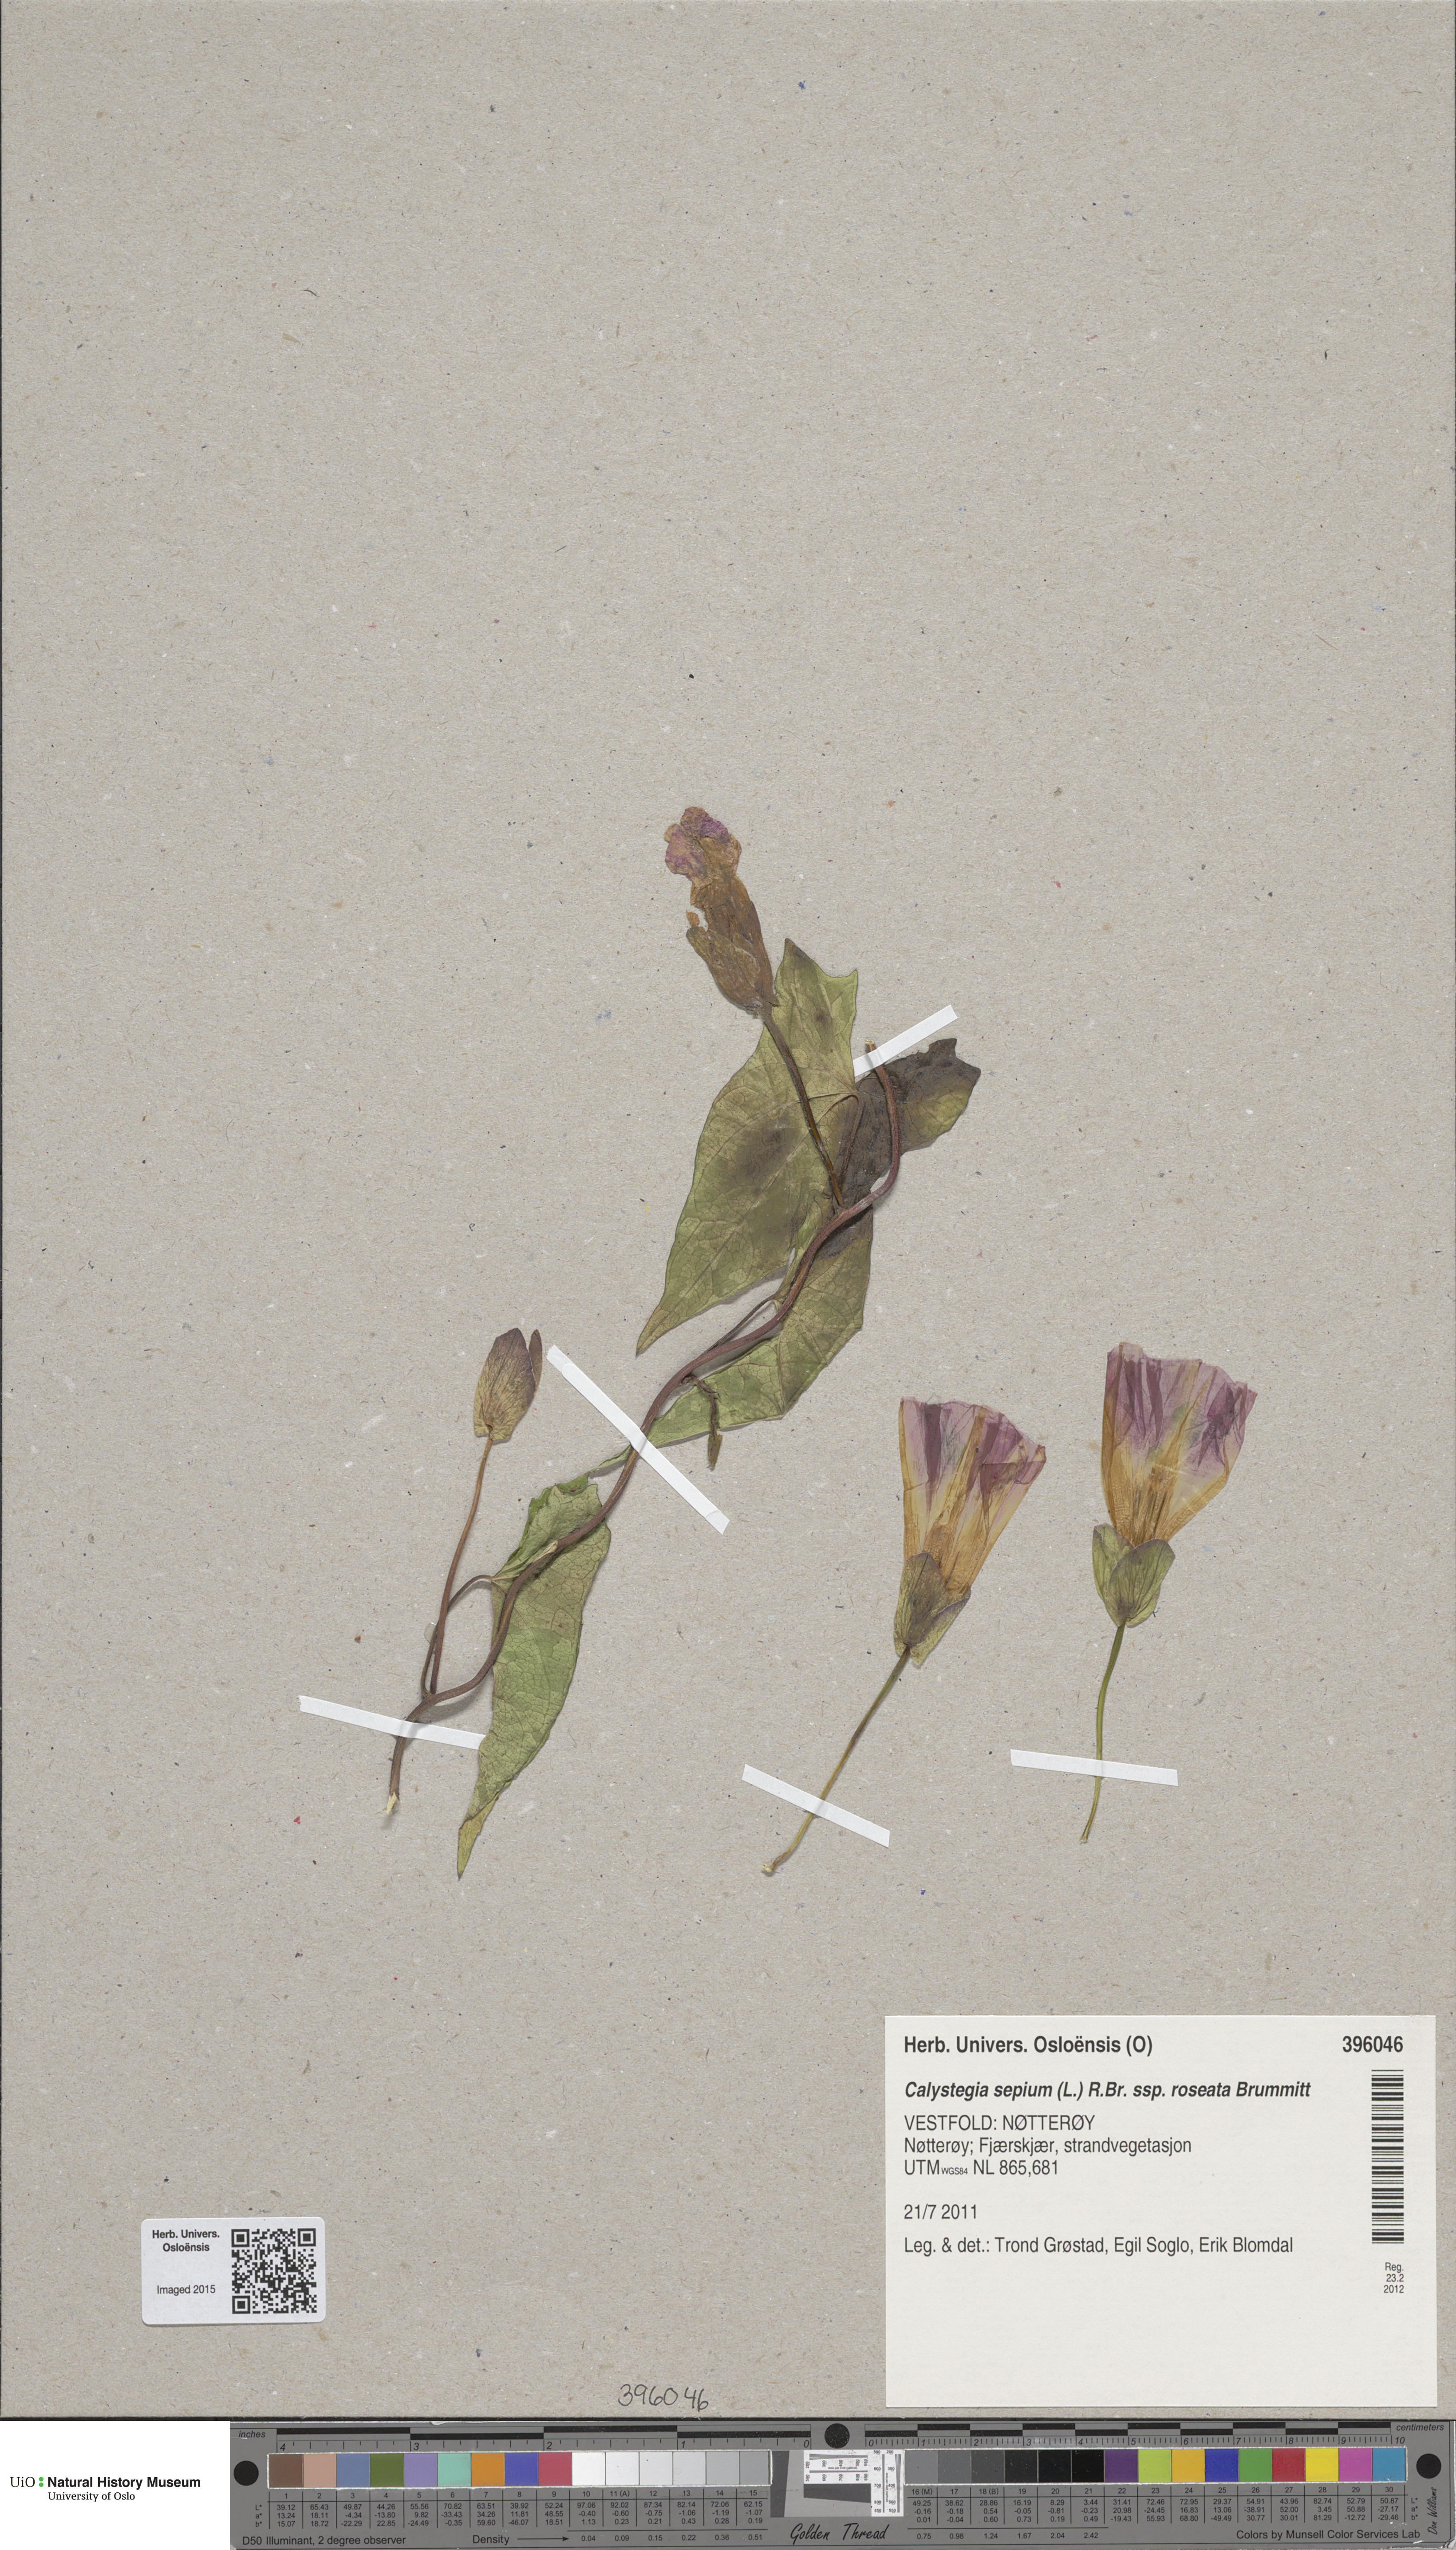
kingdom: Plantae
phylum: Tracheophyta
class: Magnoliopsida
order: Solanales
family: Convolvulaceae
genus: Calystegia
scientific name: Calystegia pulchra
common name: Hairy bindweed
